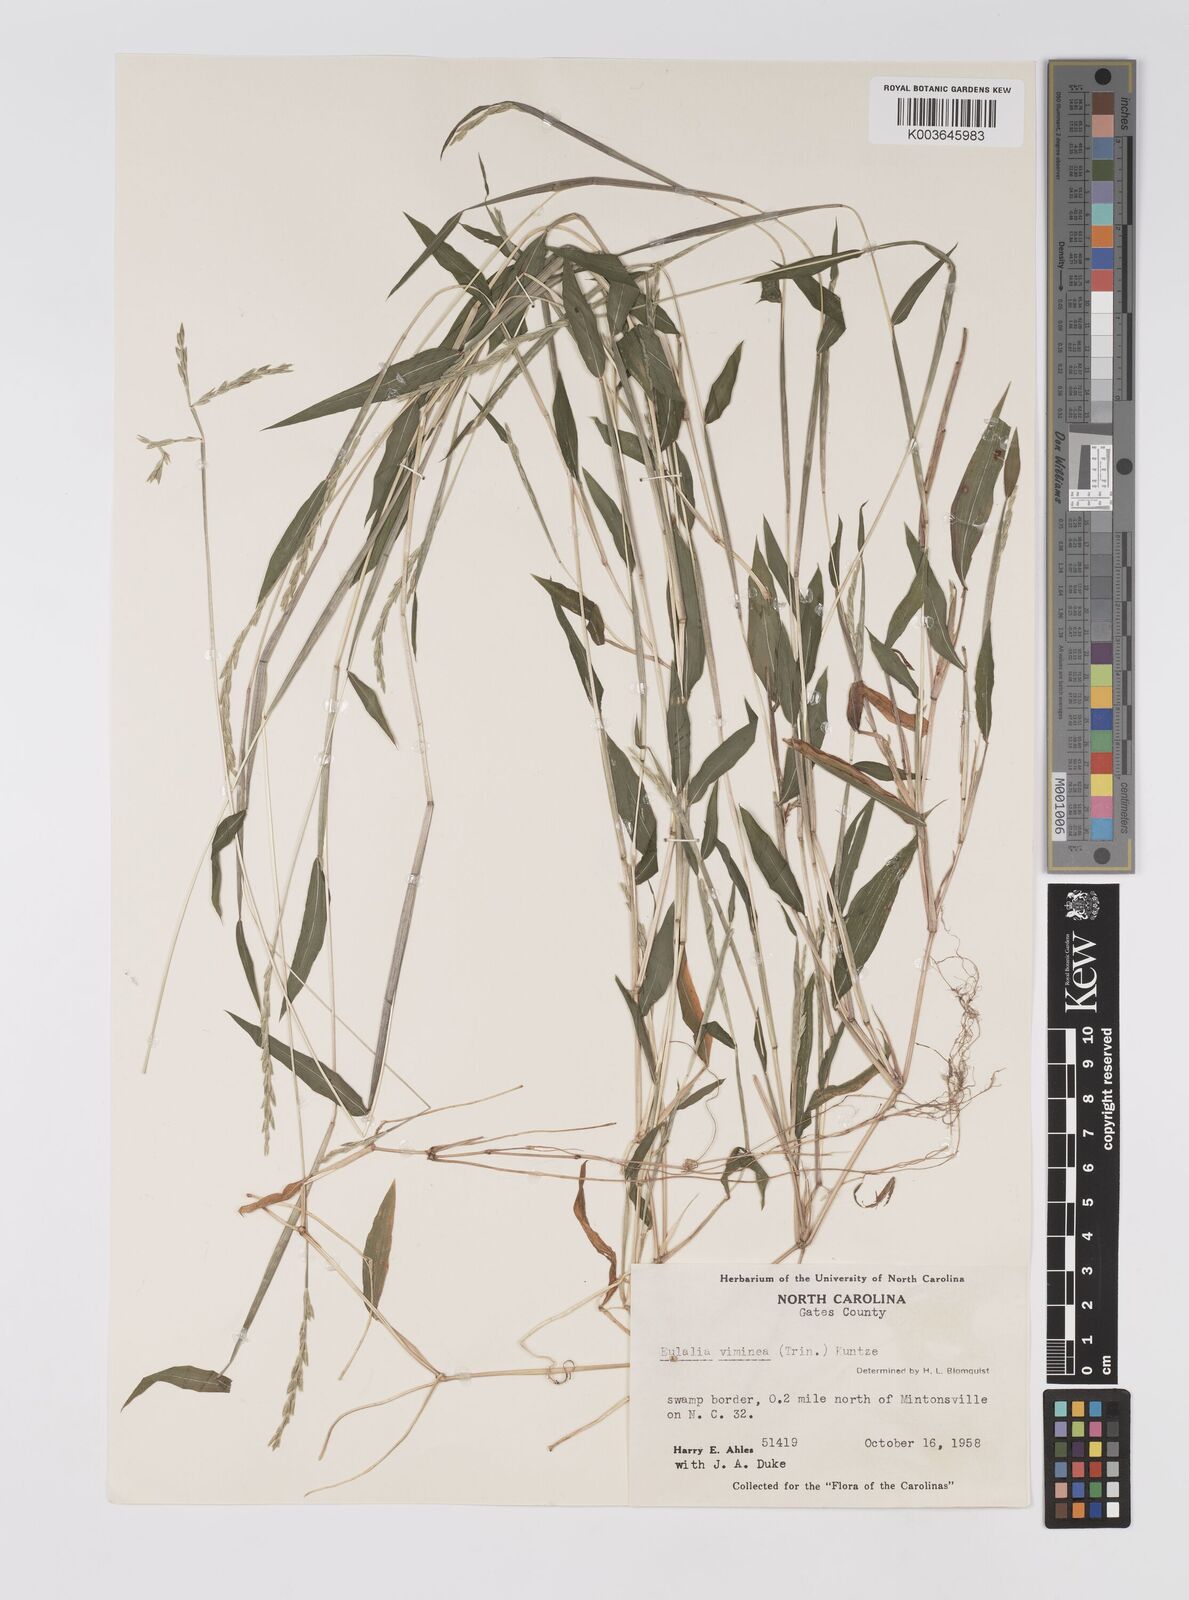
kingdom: Plantae
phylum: Tracheophyta
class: Liliopsida
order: Poales
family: Poaceae
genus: Microstegium
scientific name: Microstegium vimineum
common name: Japanese stiltgrass
